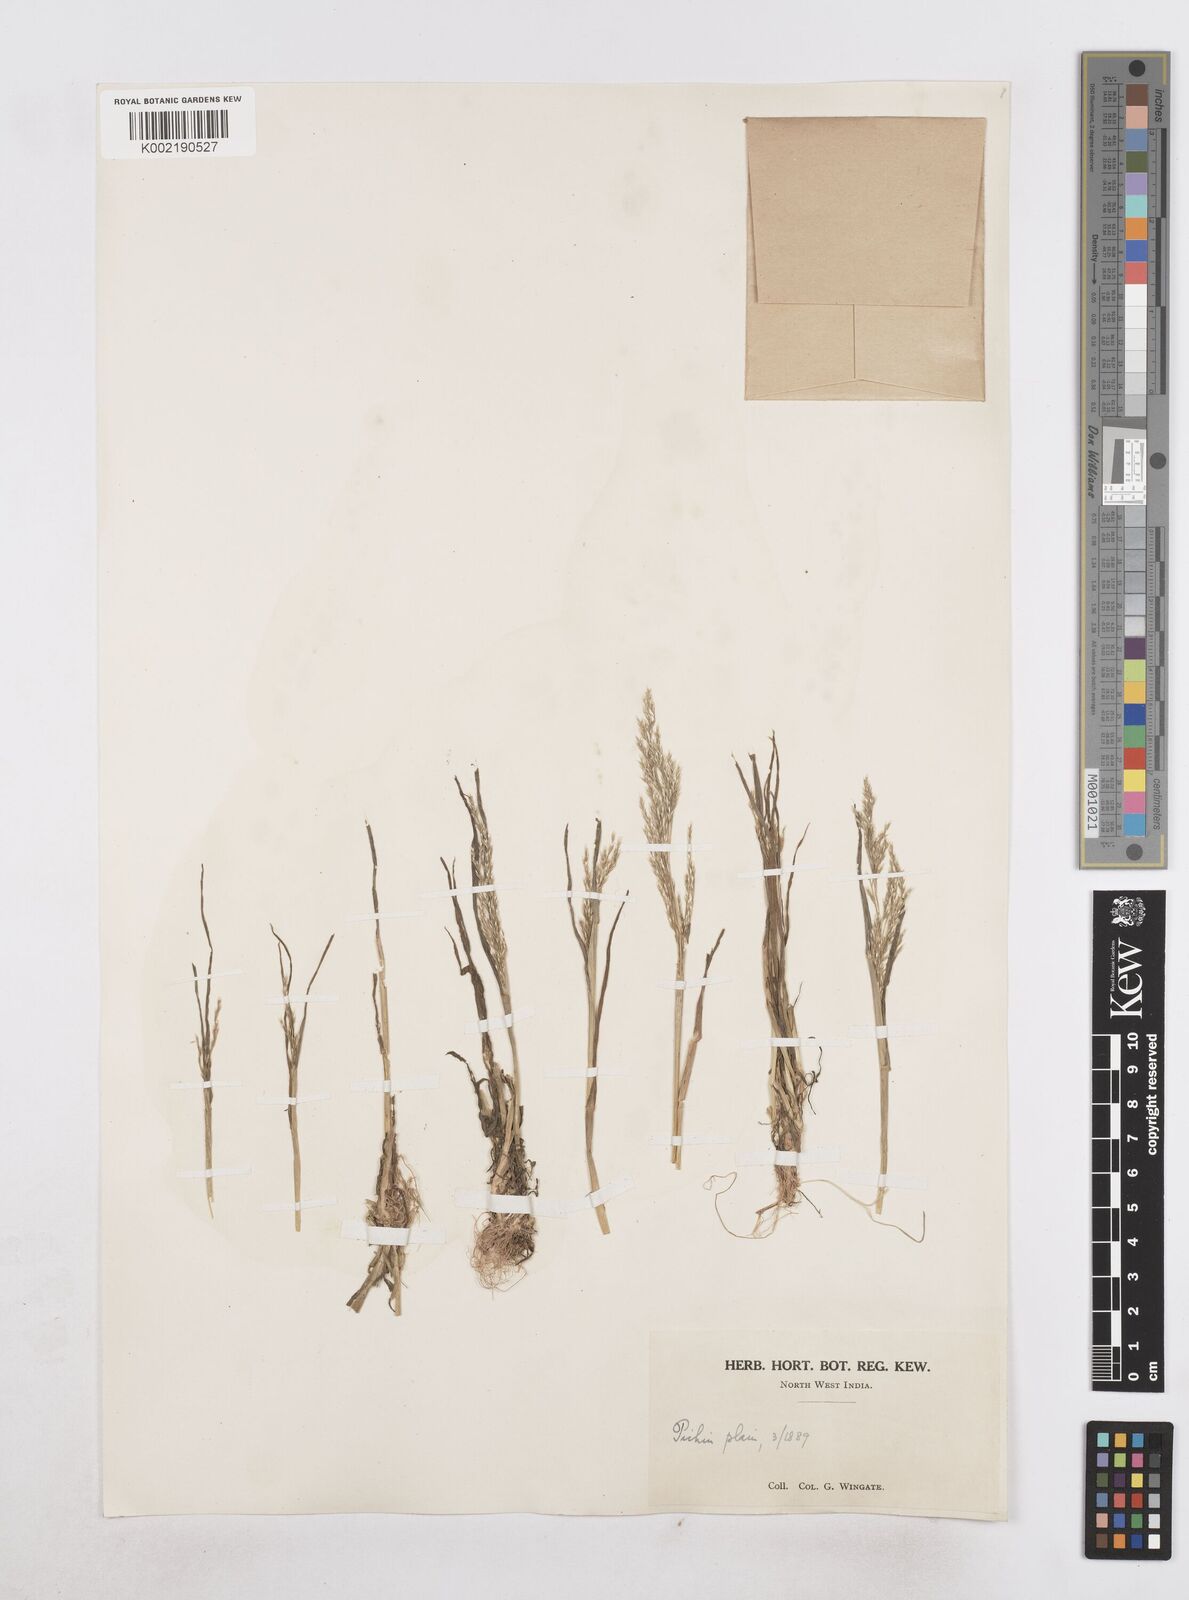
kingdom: Plantae
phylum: Tracheophyta
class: Liliopsida
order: Poales
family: Poaceae
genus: Poa
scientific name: Poa persica
